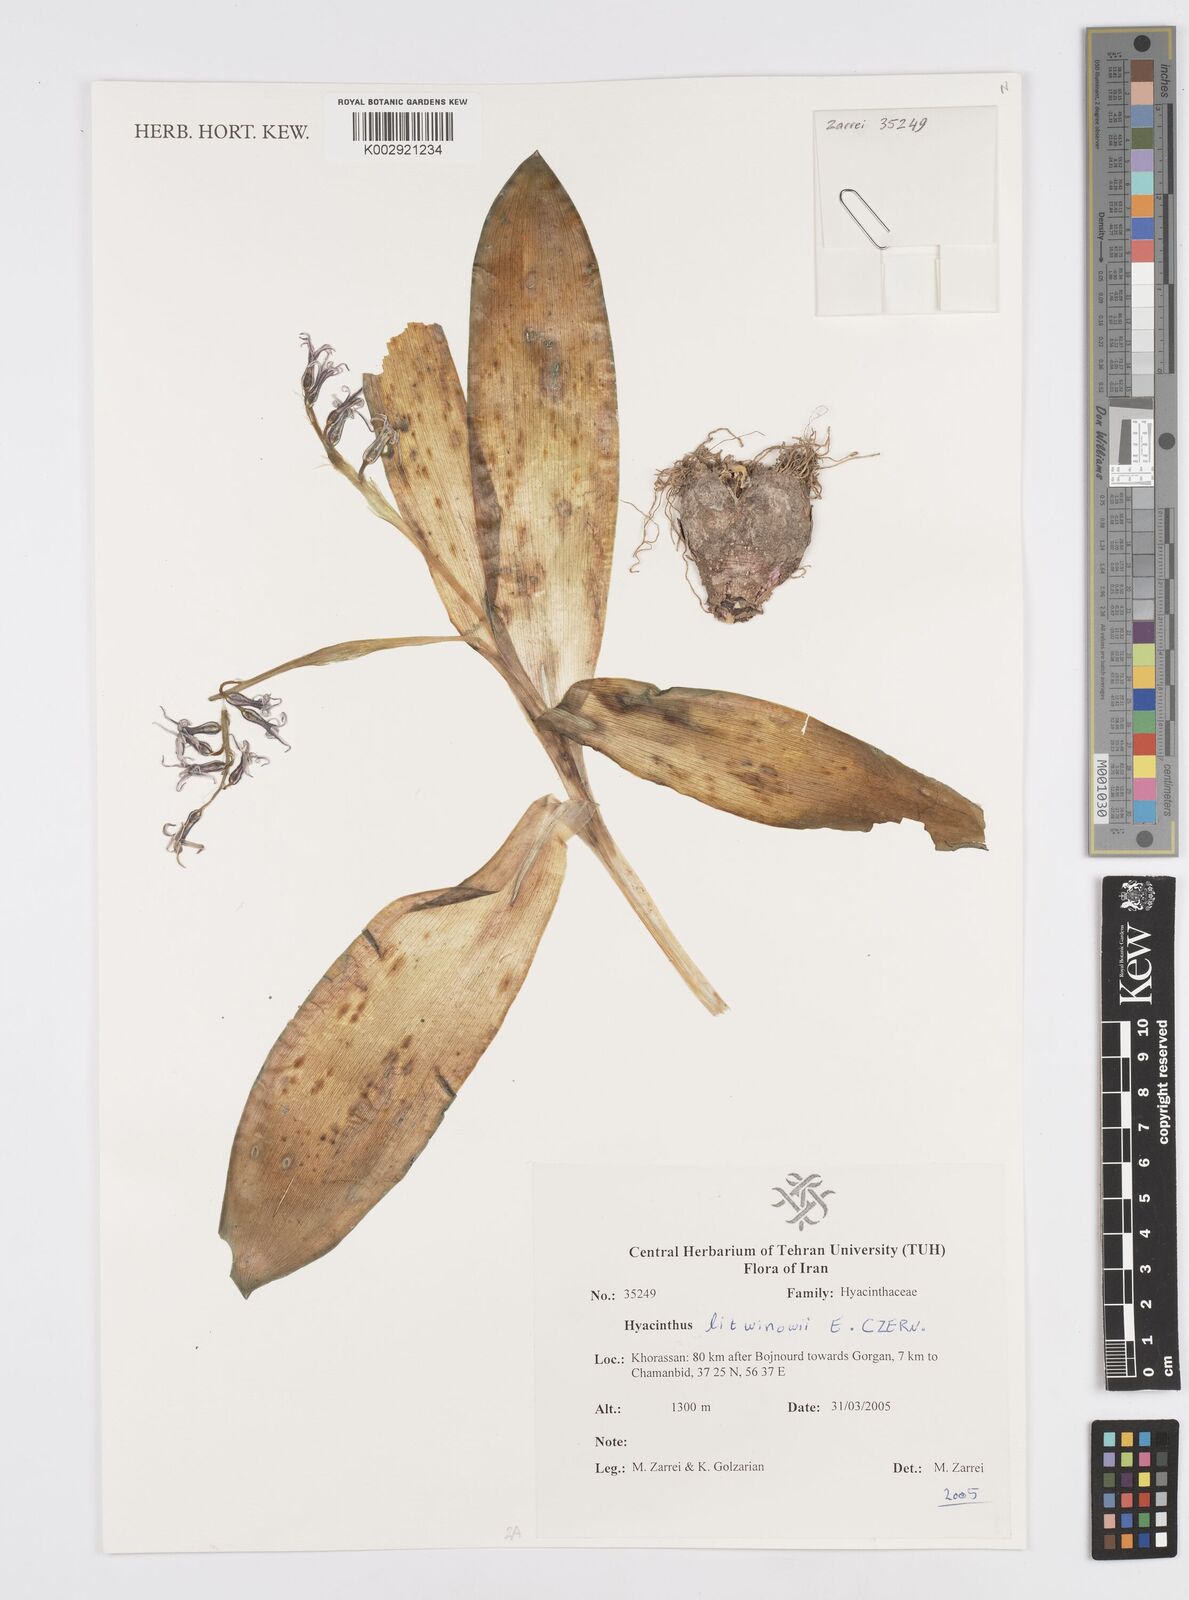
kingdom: Plantae
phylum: Tracheophyta
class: Liliopsida
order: Asparagales
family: Asparagaceae
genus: Hyacinthus
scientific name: Hyacinthus litwinowii
